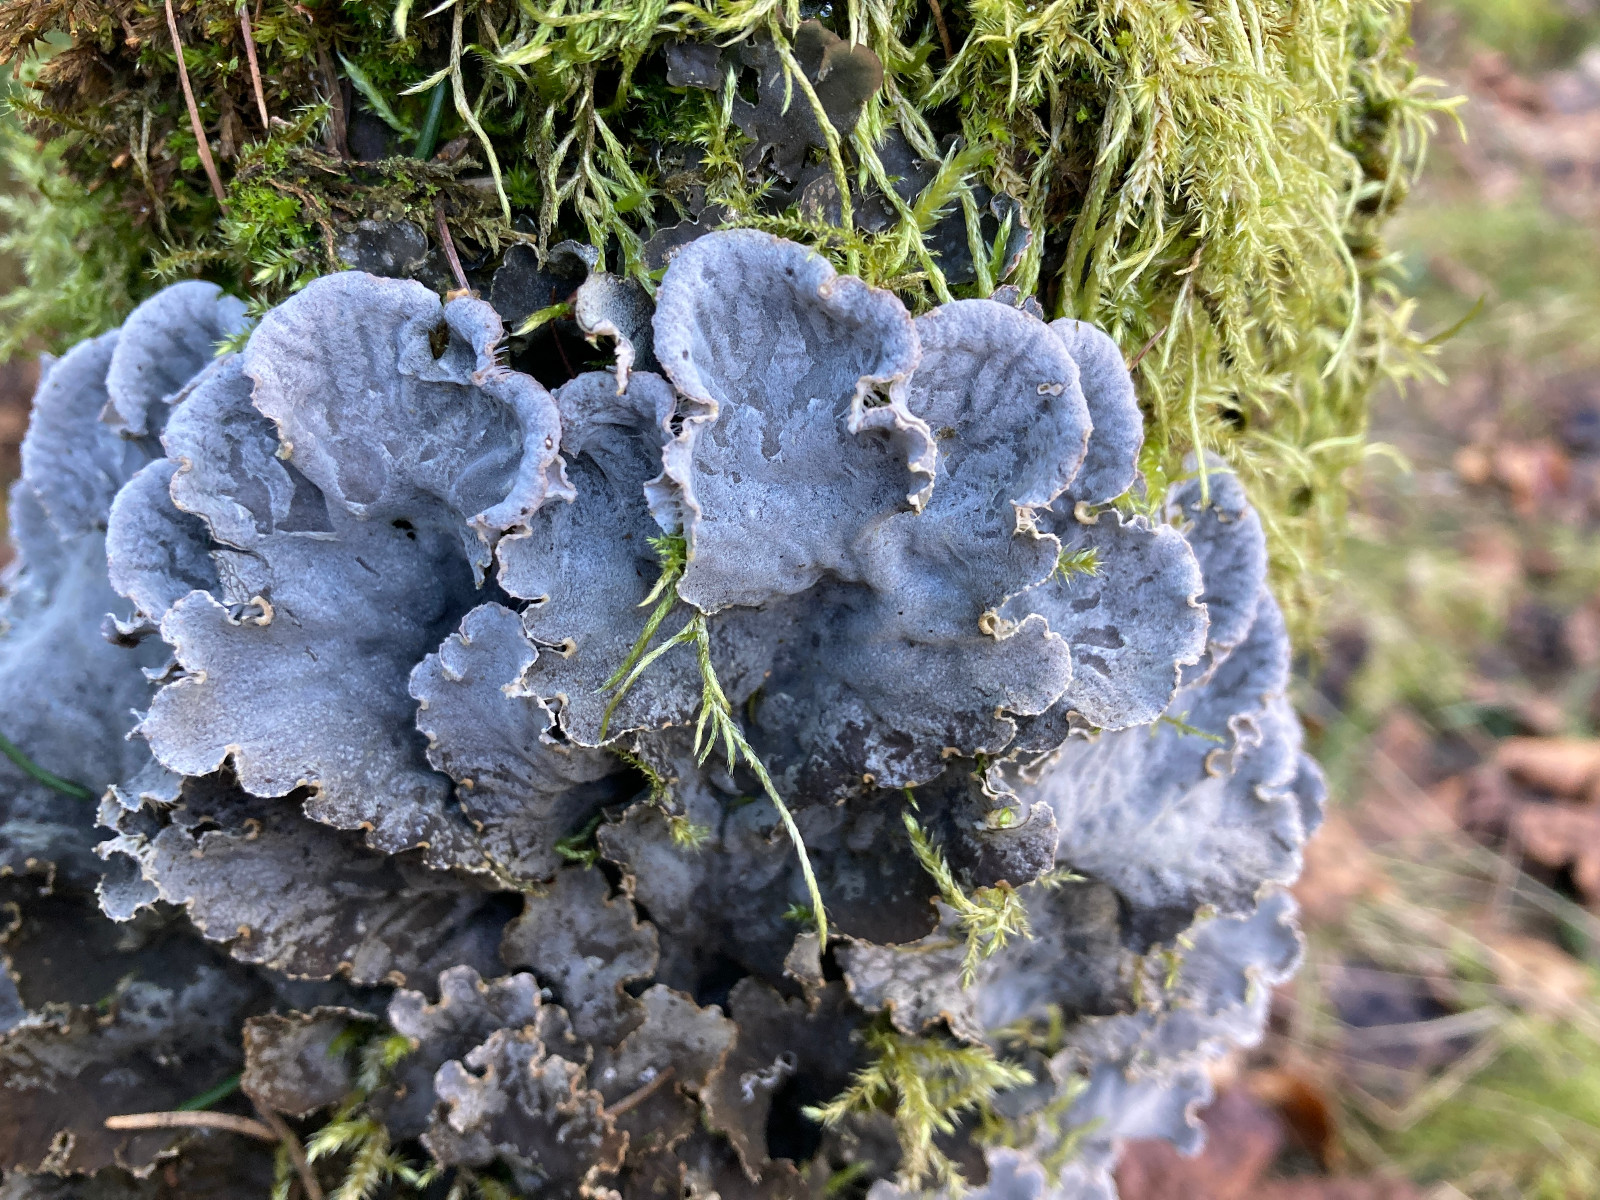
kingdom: Fungi
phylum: Ascomycota
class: Lecanoromycetes
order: Peltigerales
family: Peltigeraceae
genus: Peltigera
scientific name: Peltigera membranacea
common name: tynd skjoldlav
